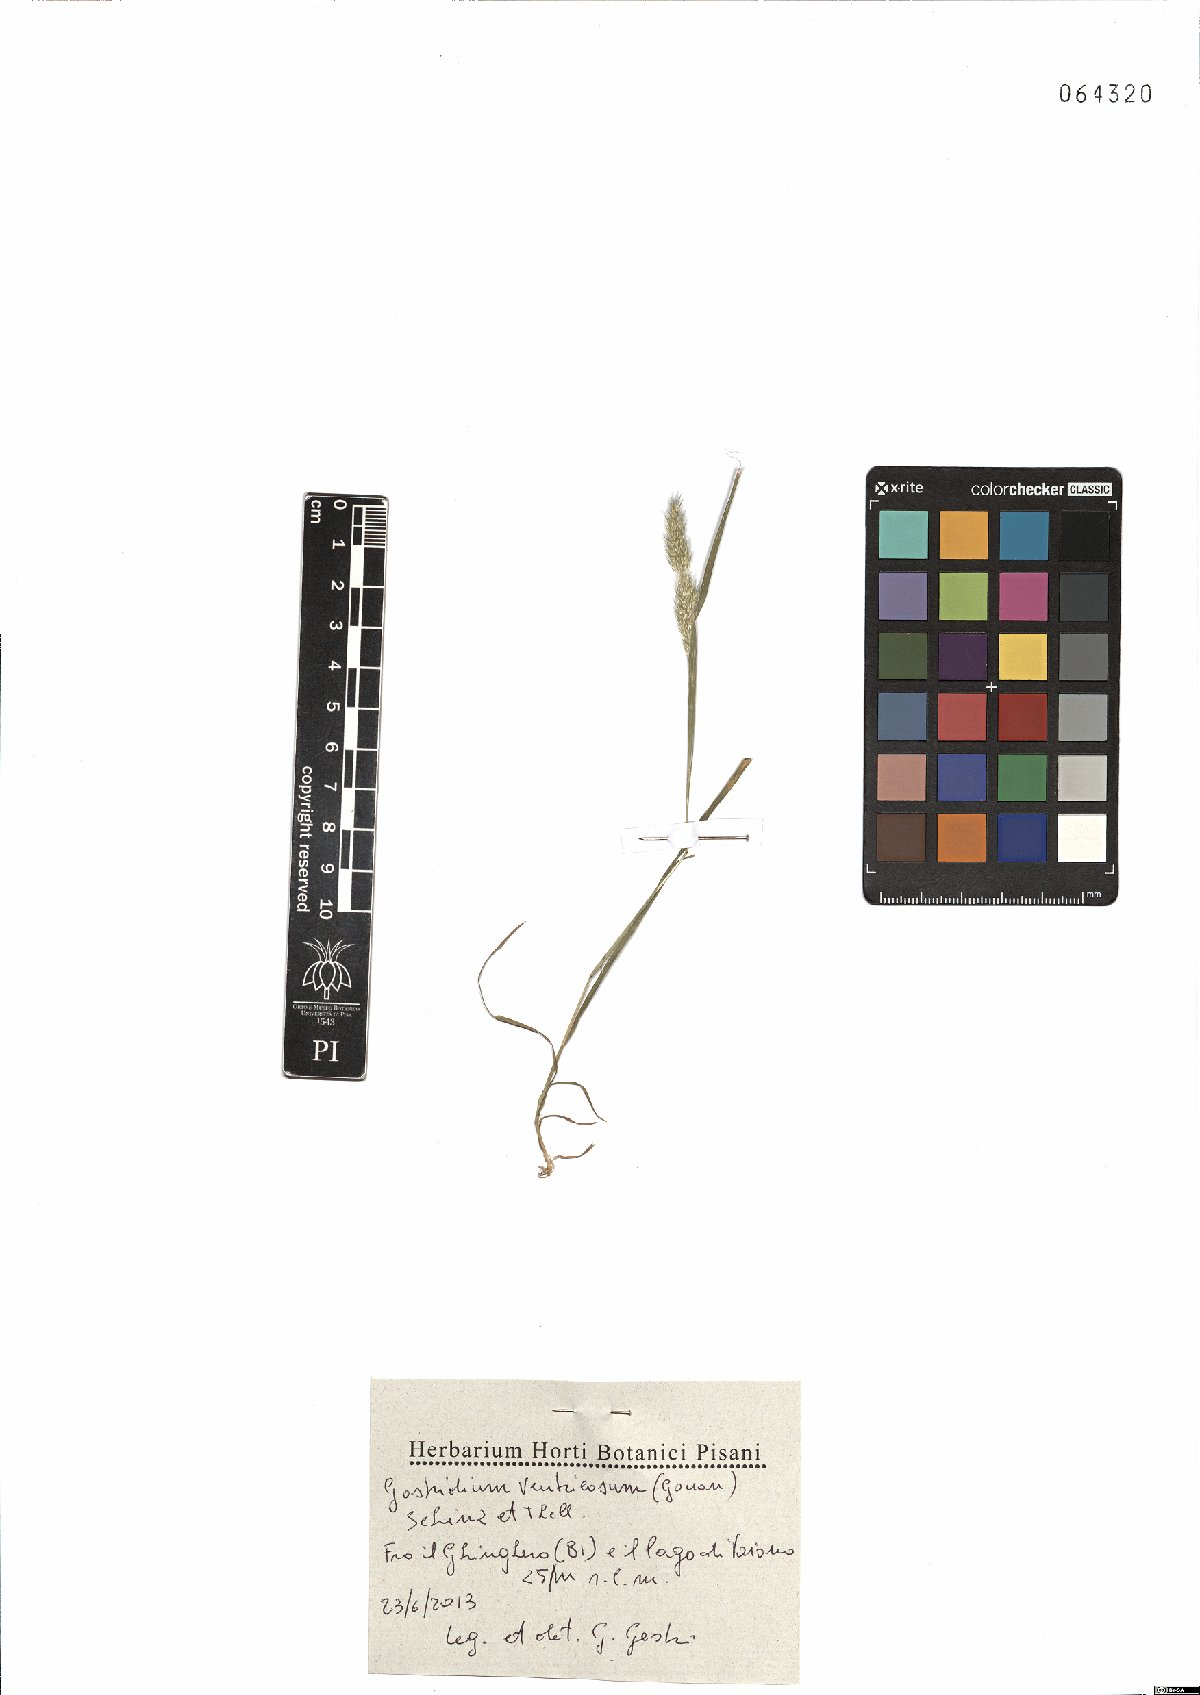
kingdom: Plantae
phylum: Tracheophyta
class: Liliopsida
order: Poales
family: Poaceae
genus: Gastridium
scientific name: Gastridium ventricosum
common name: Nit-grass
